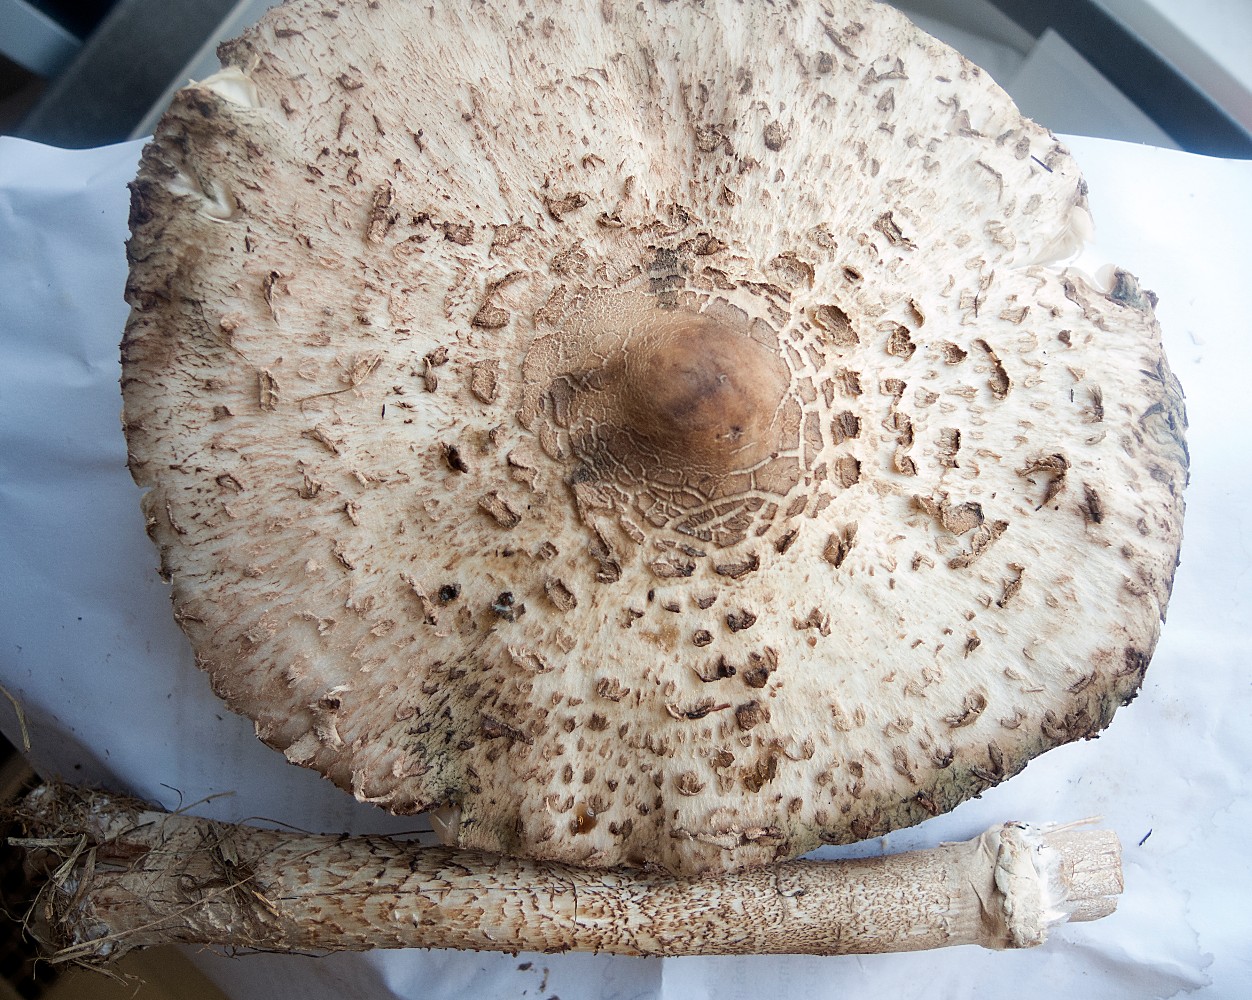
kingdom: Fungi
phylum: Basidiomycota
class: Agaricomycetes
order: Agaricales
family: Agaricaceae
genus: Macrolepiota
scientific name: Macrolepiota procera
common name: stor kæmpeparasolhat
